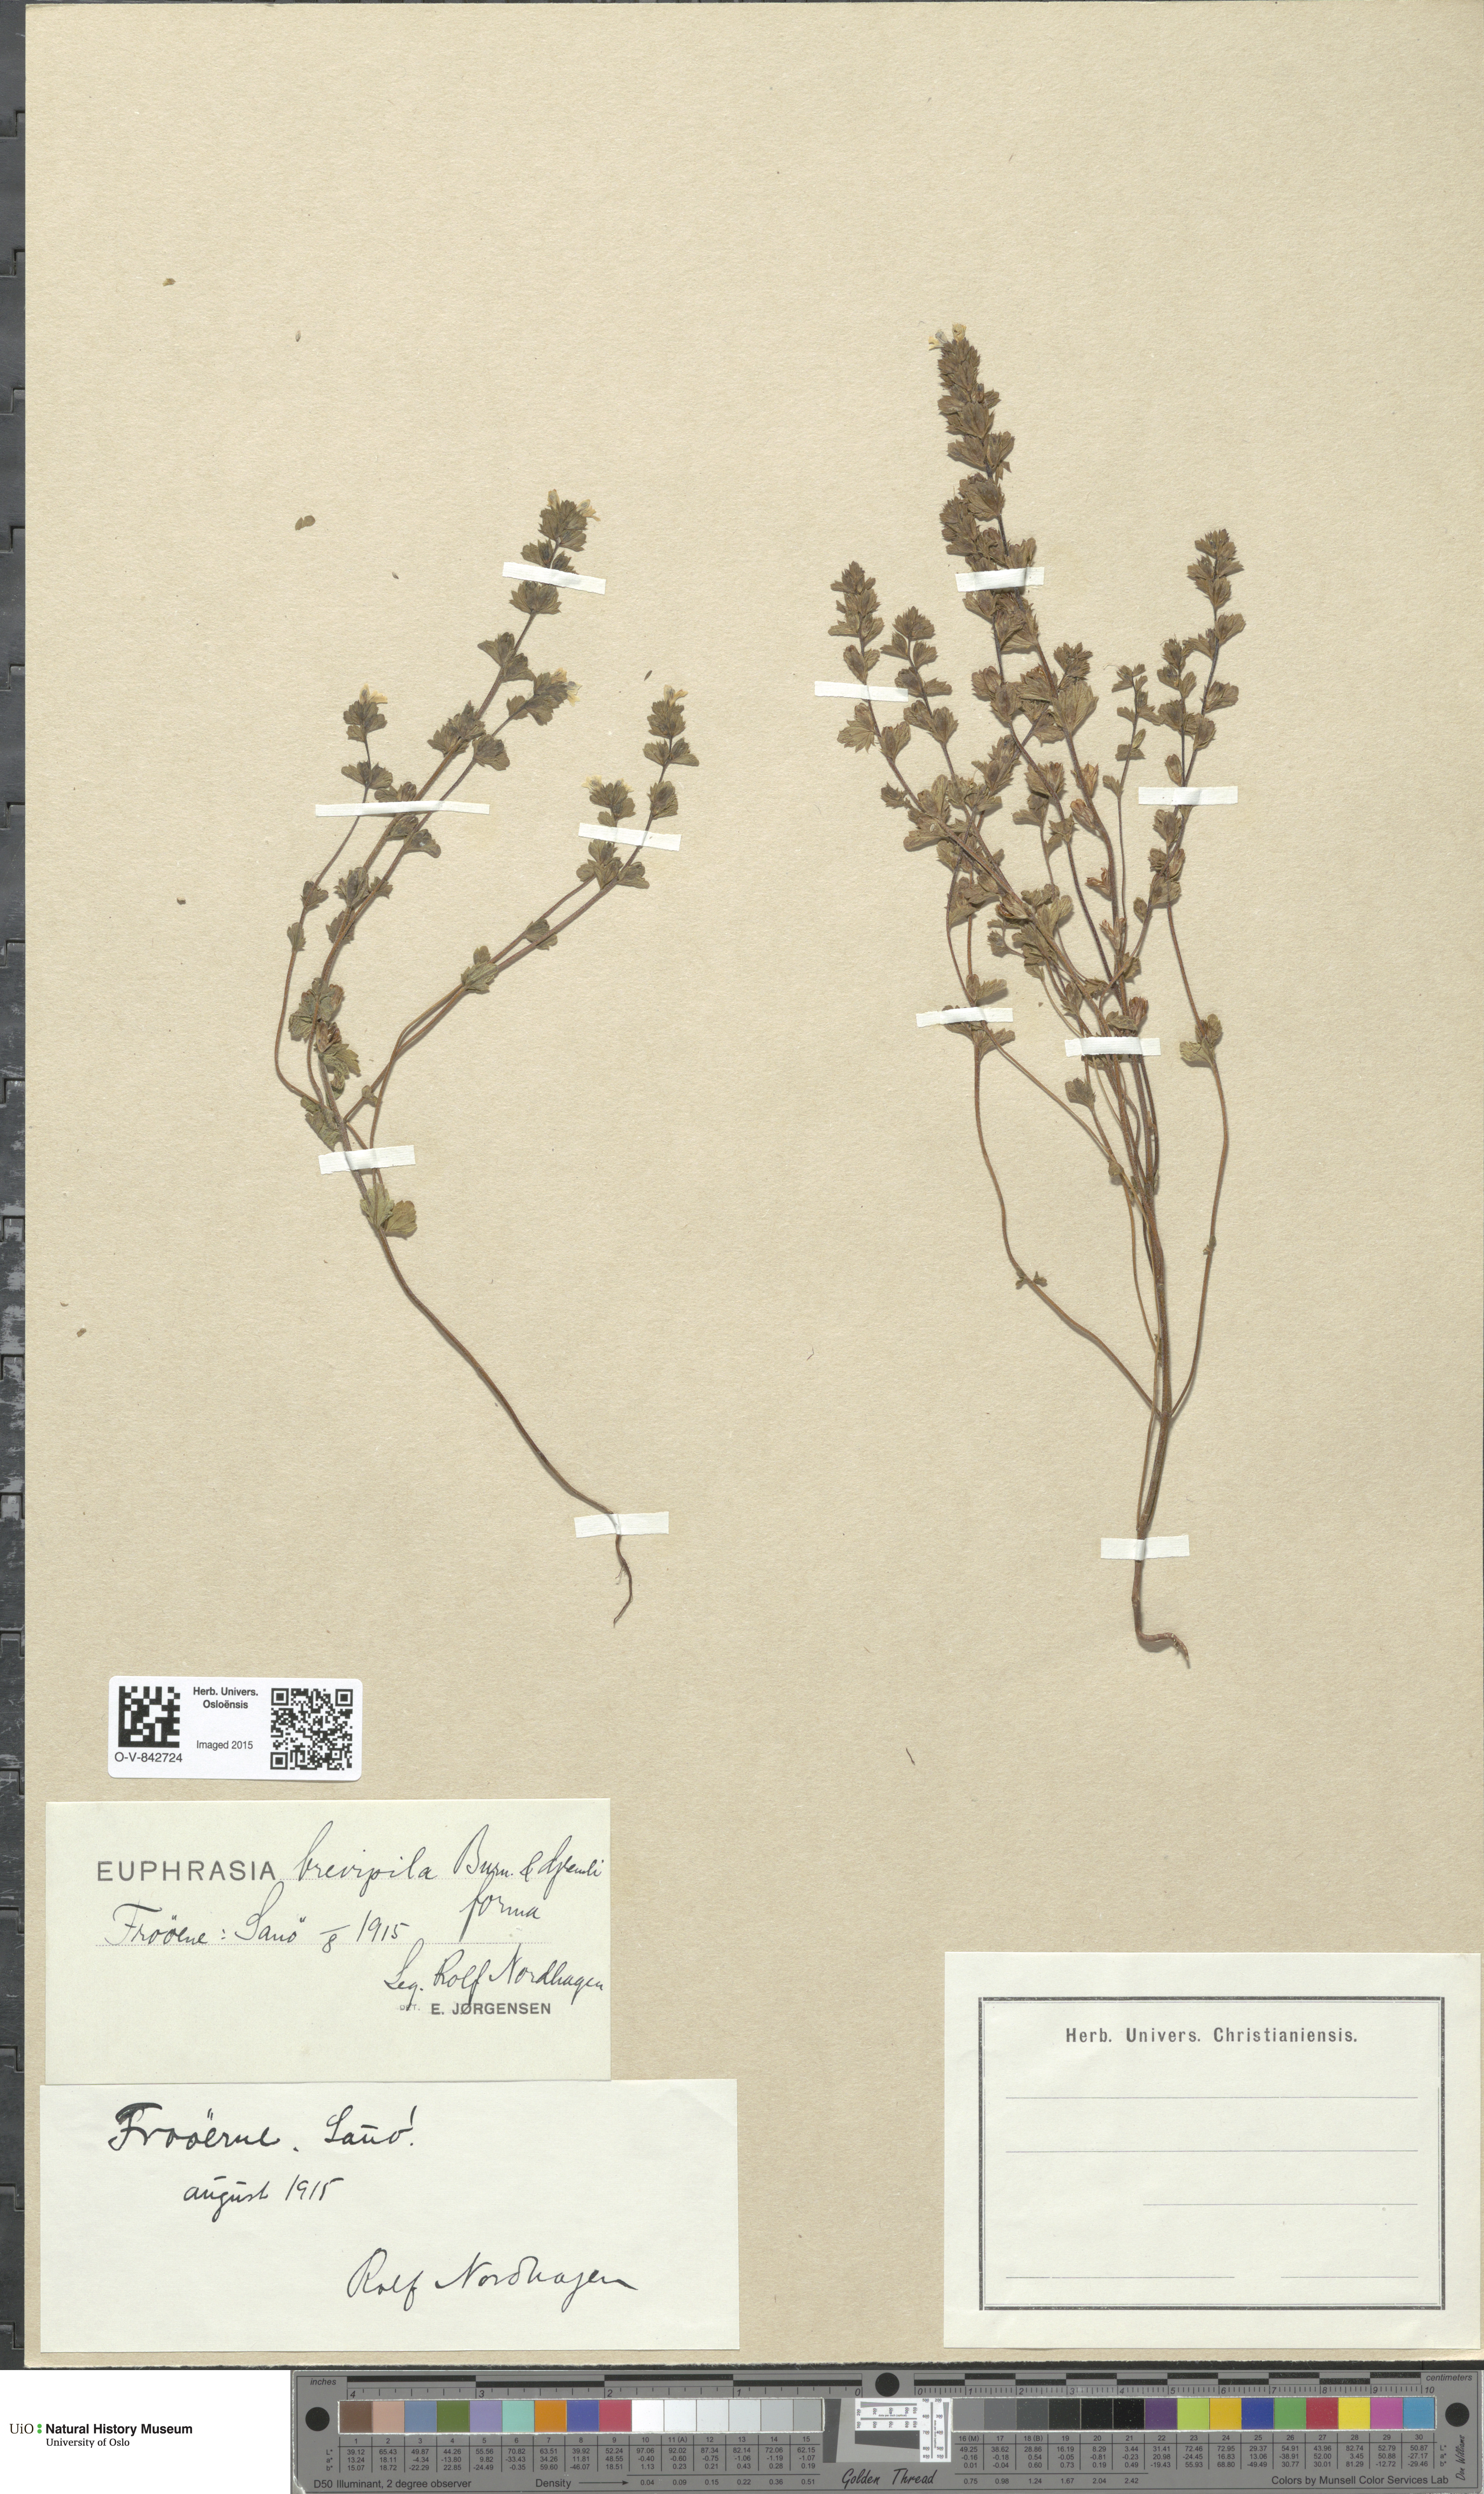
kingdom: Plantae
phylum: Tracheophyta
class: Magnoliopsida
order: Lamiales
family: Orobanchaceae
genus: Euphrasia
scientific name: Euphrasia vernalis
